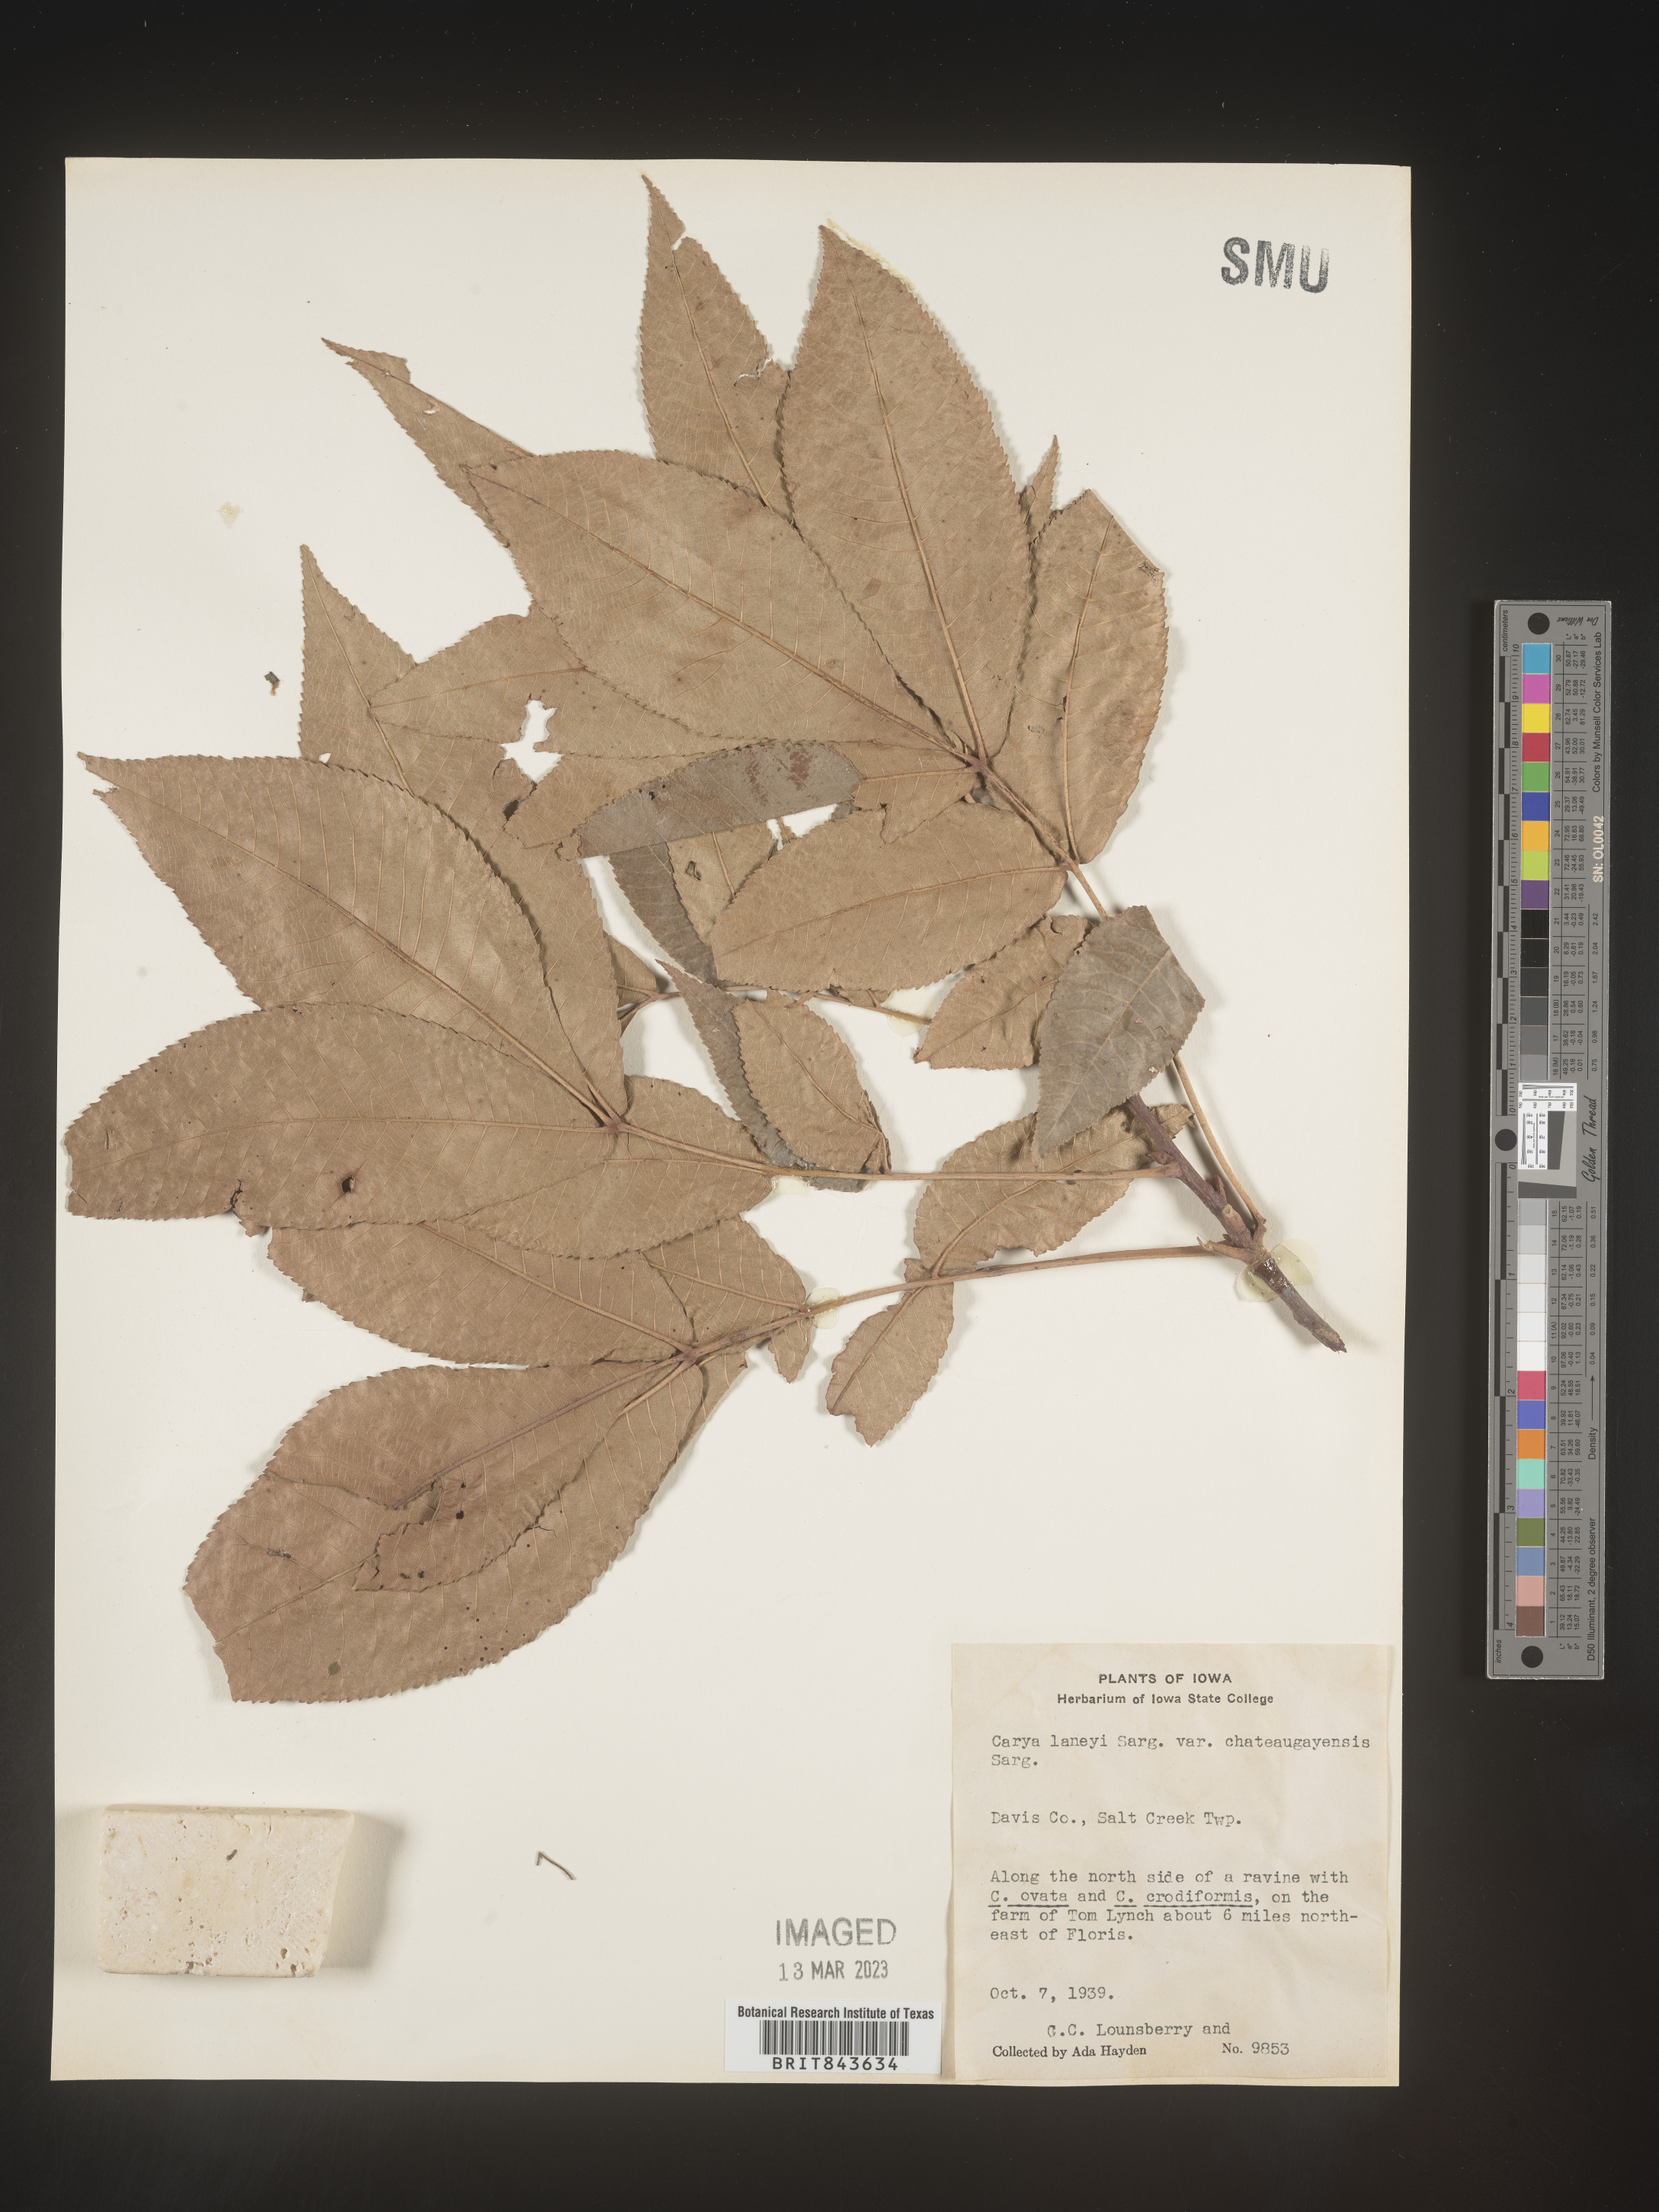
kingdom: Plantae
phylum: Tracheophyta
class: Magnoliopsida
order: Fagales
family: Juglandaceae
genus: Carya
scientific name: Carya laneyi
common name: Laney's hickory
